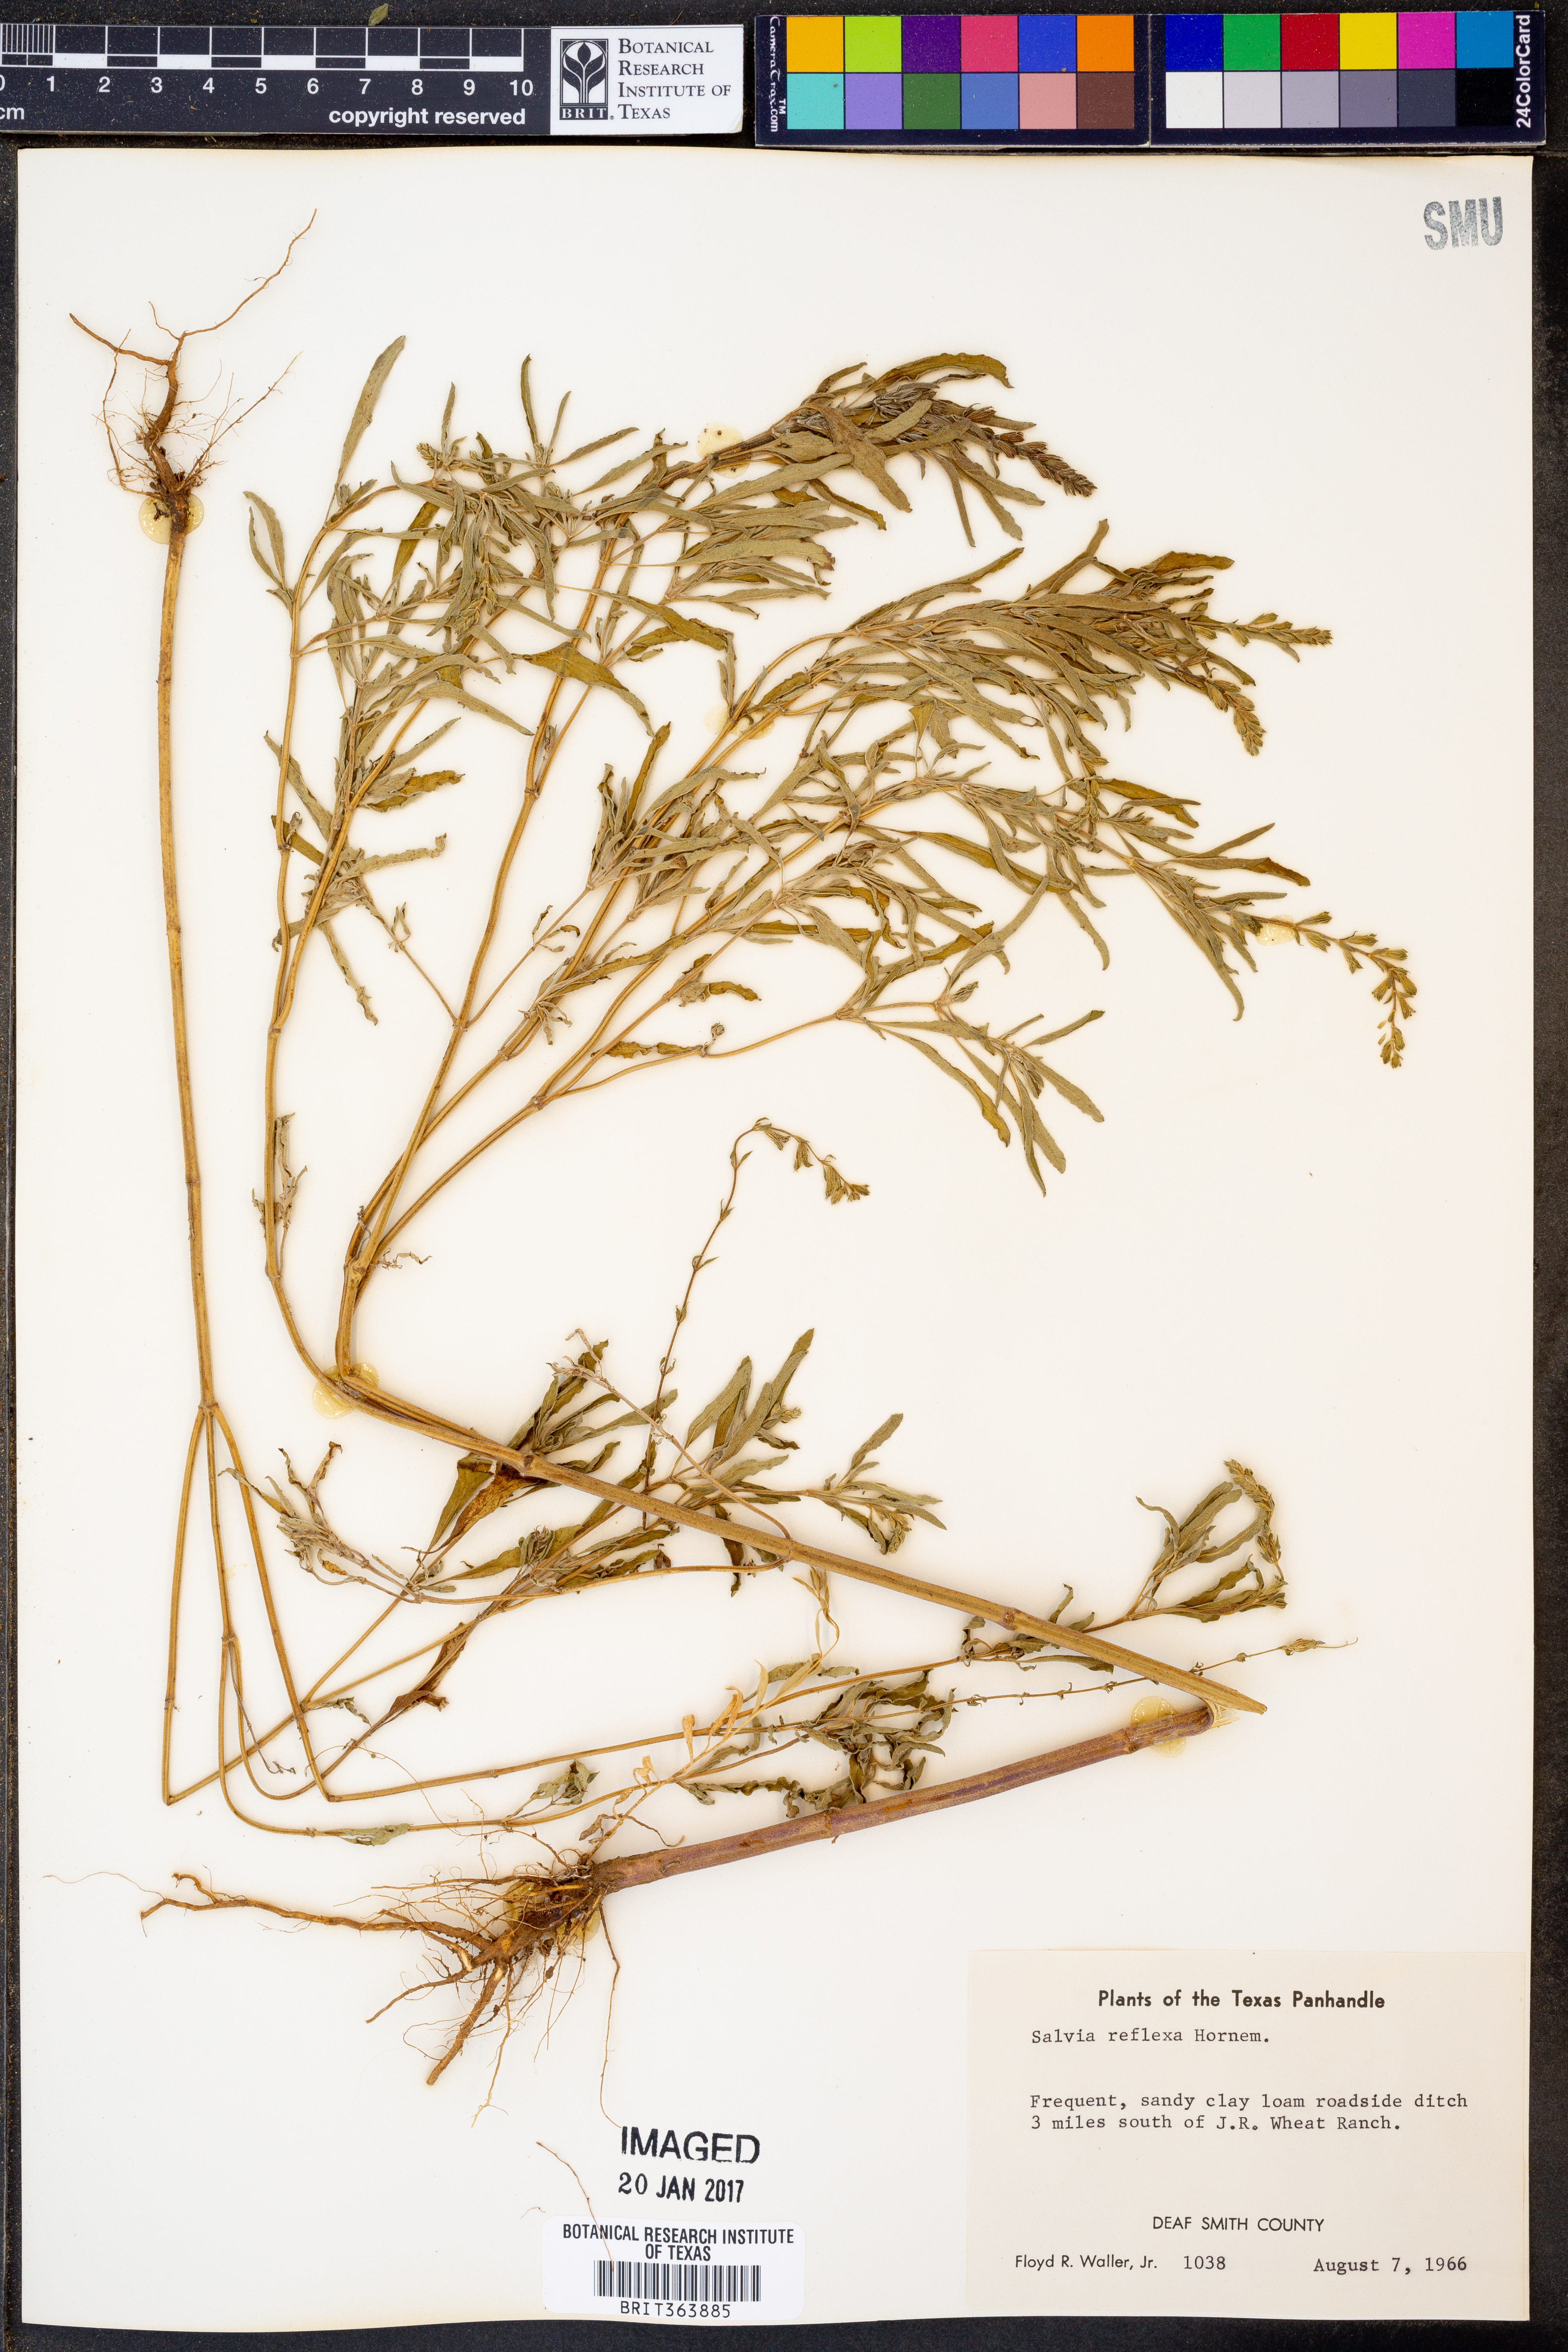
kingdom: Plantae
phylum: Tracheophyta
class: Magnoliopsida
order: Lamiales
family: Lamiaceae
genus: Salvia
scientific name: Salvia reflexa
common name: Mintweed
